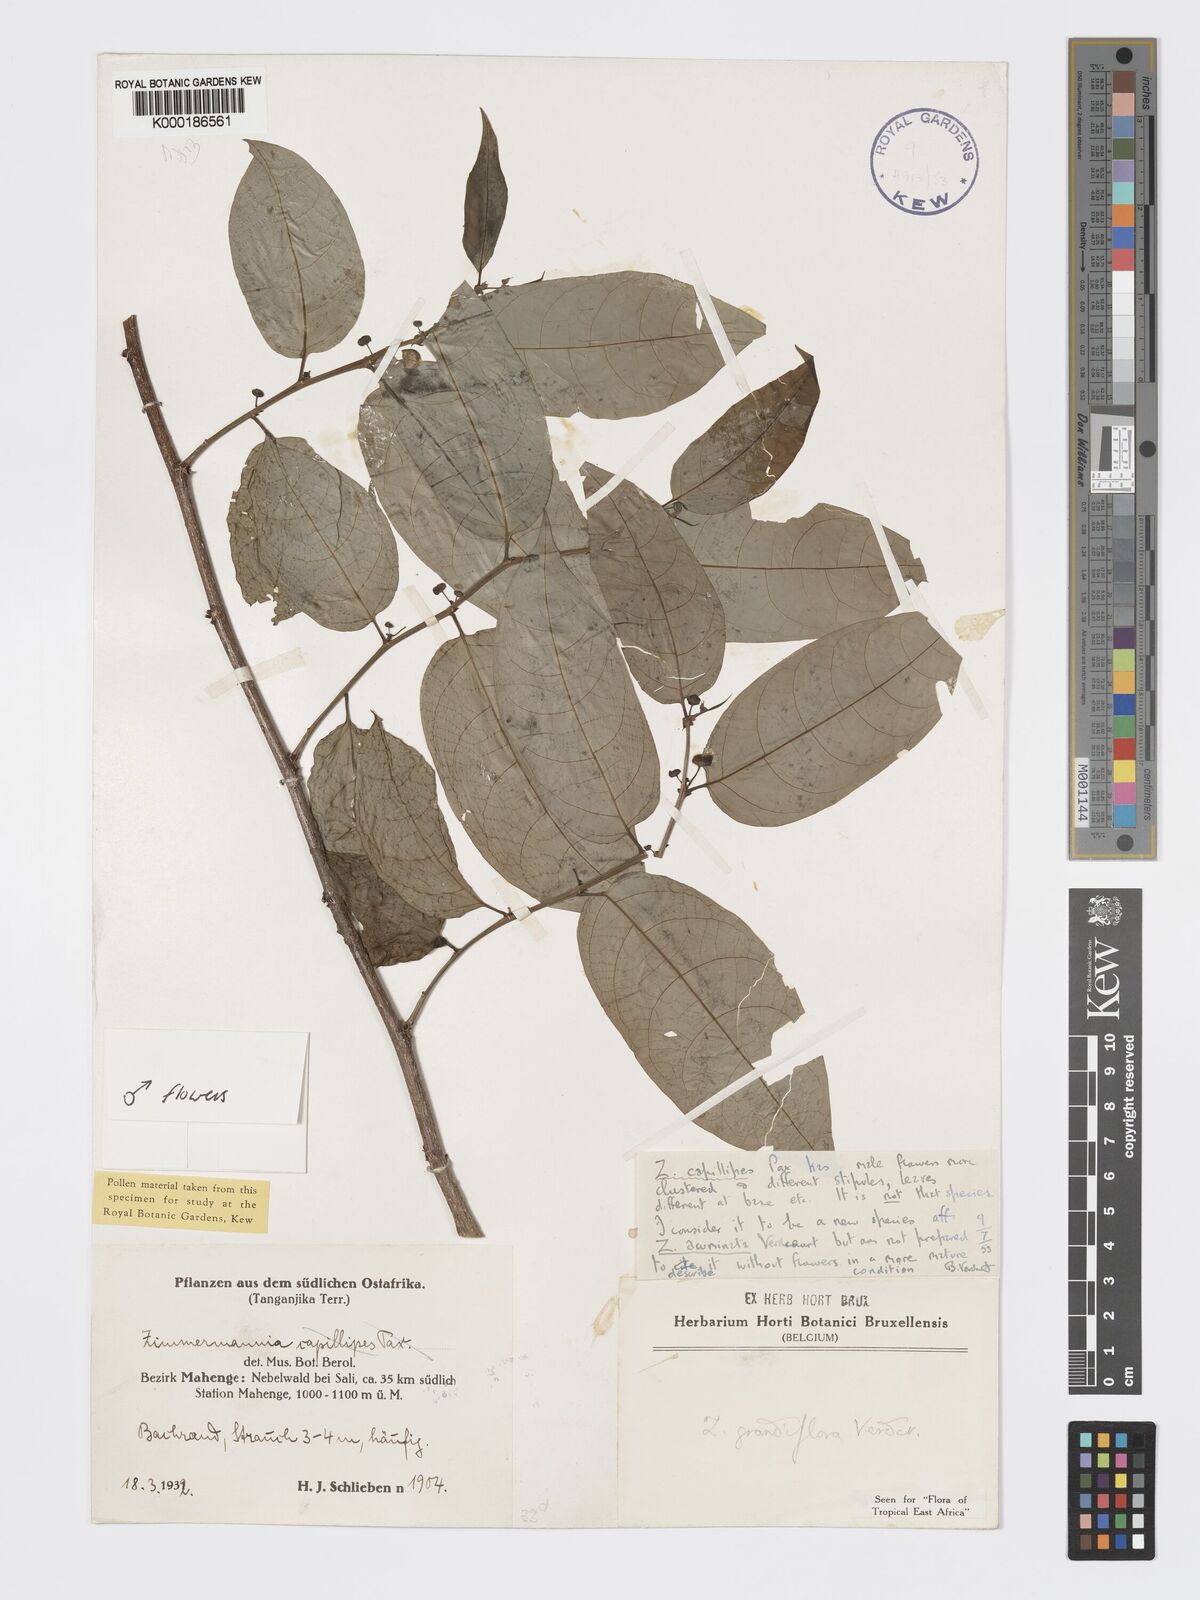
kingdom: Plantae
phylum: Tracheophyta
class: Magnoliopsida
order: Malpighiales
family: Phyllanthaceae
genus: Meineckia
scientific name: Meineckia grandiflora
